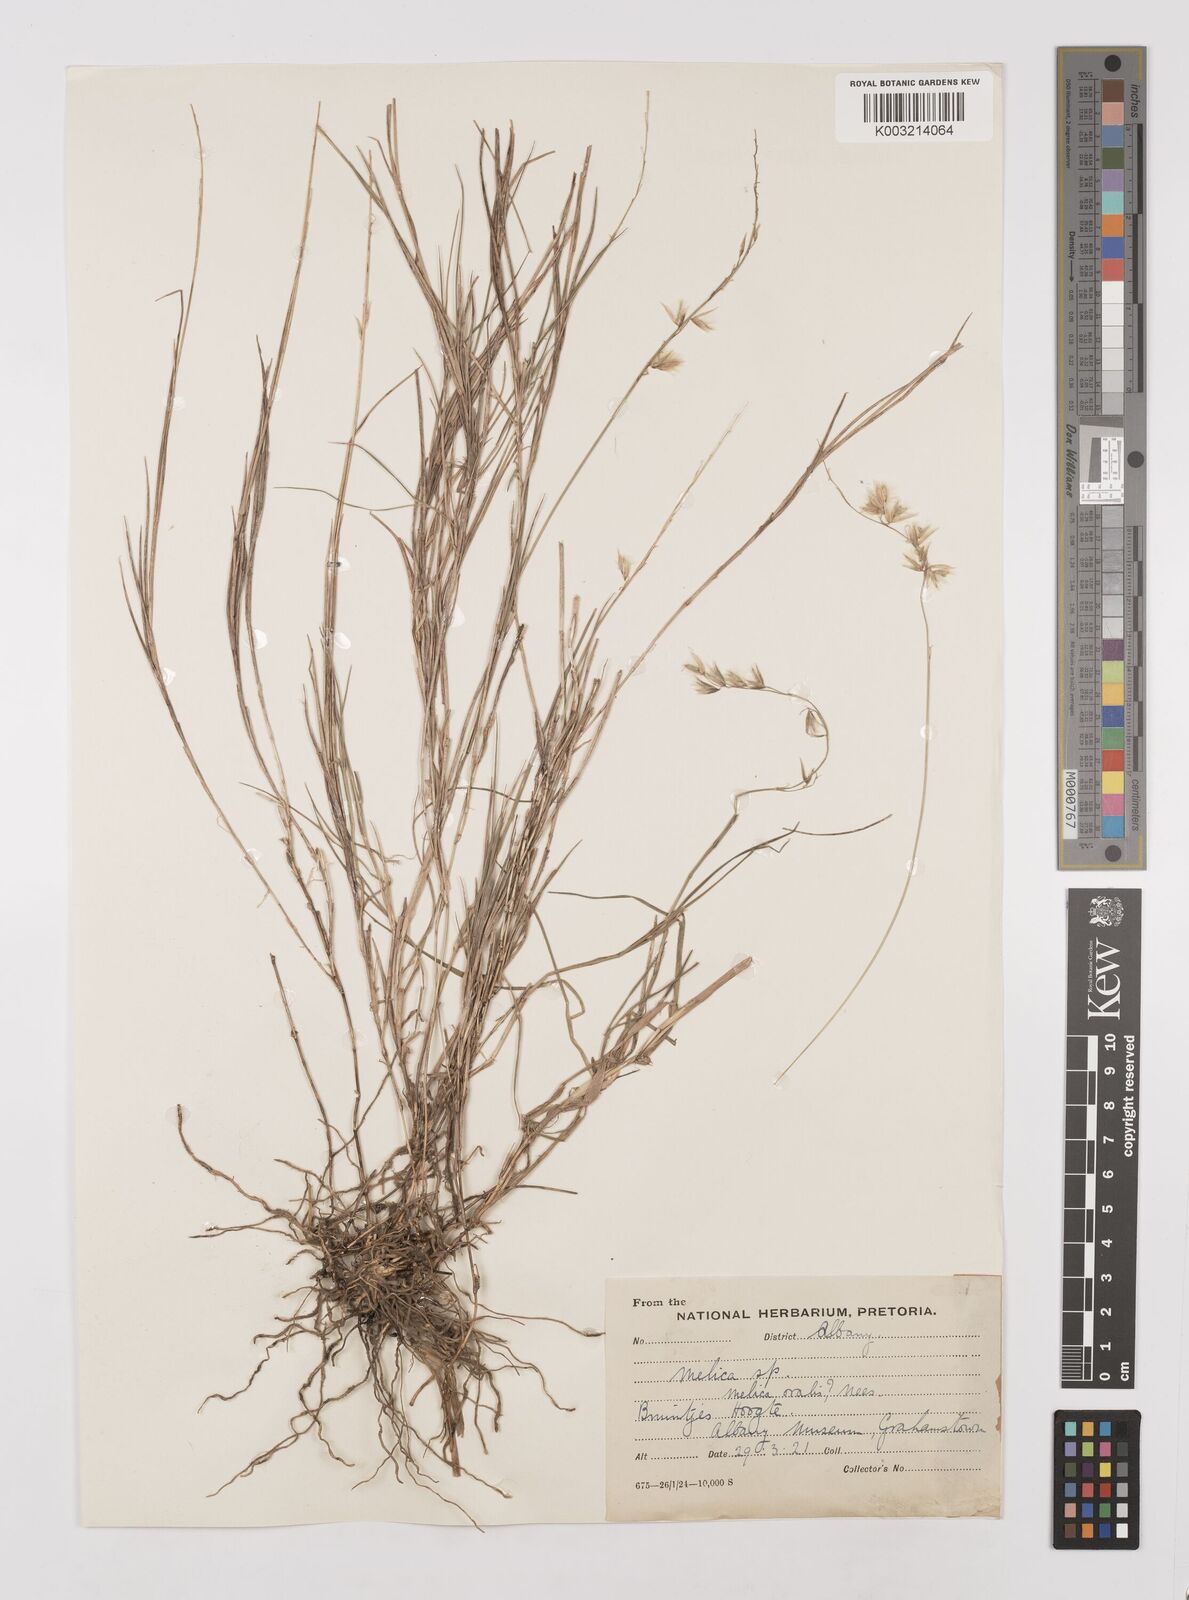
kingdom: Plantae
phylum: Tracheophyta
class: Liliopsida
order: Poales
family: Poaceae
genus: Melica
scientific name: Melica dendroides
